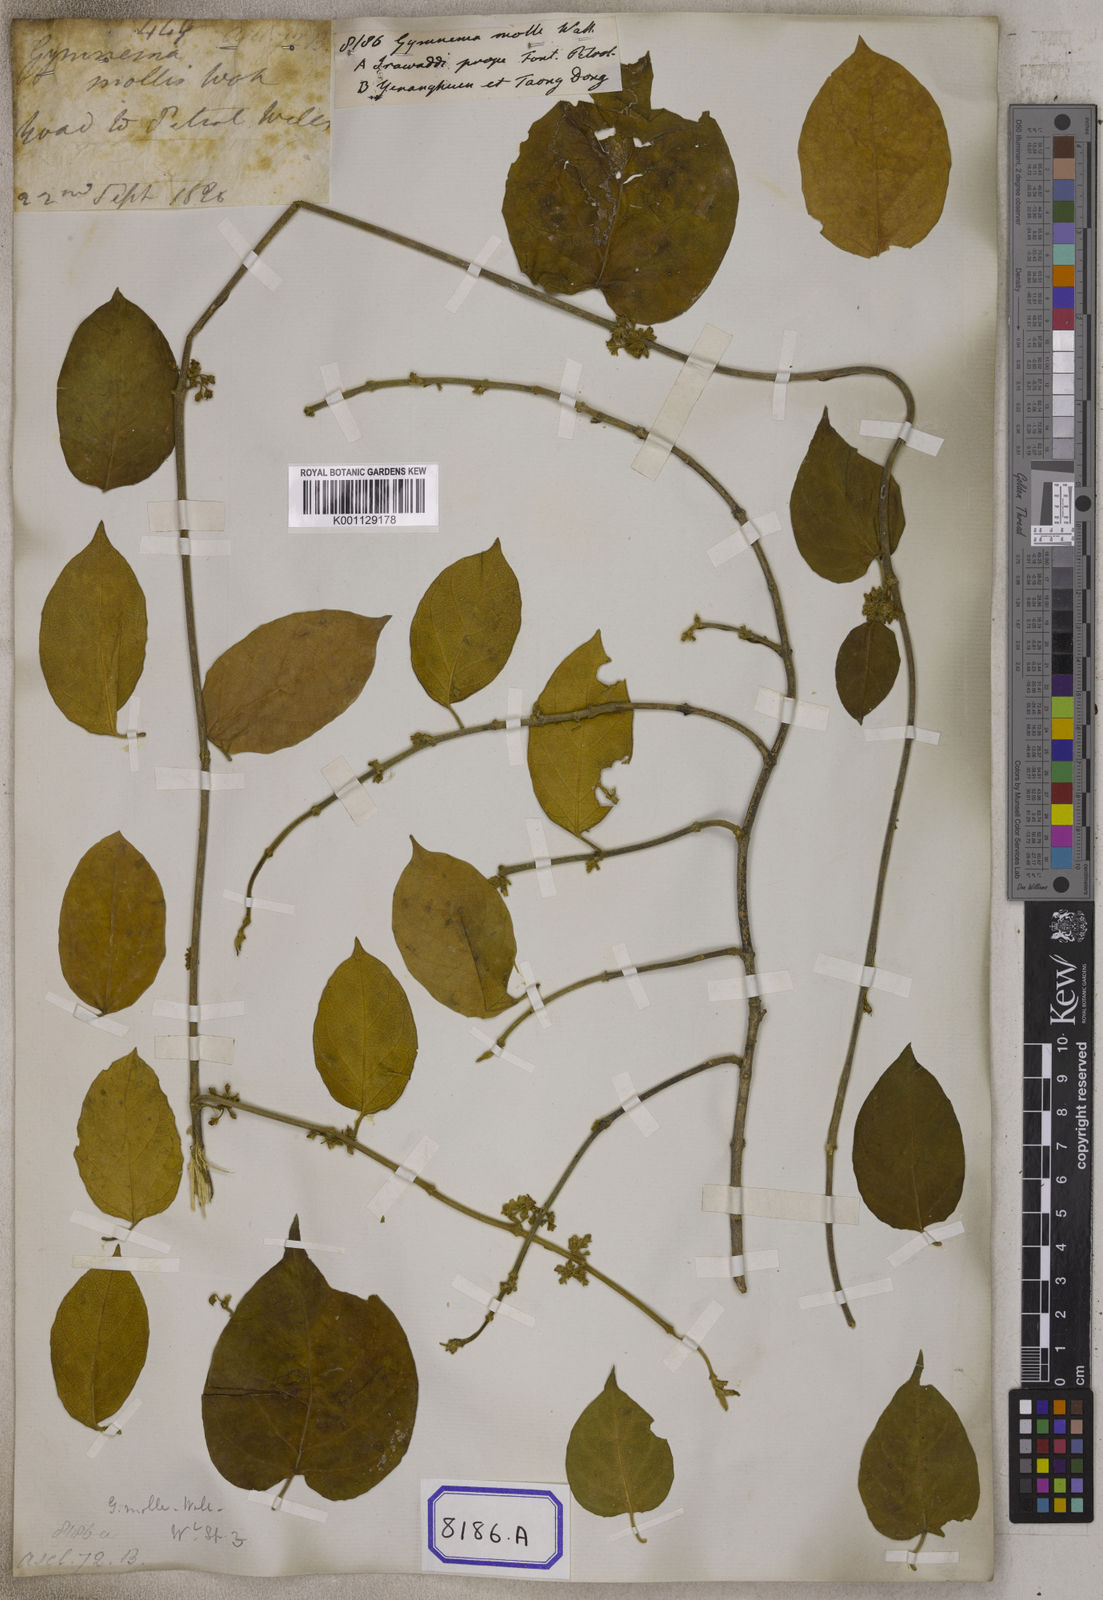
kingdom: Plantae
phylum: Tracheophyta
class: Magnoliopsida
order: Gentianales
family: Apocynaceae
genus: Gymnema
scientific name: Gymnema molle
